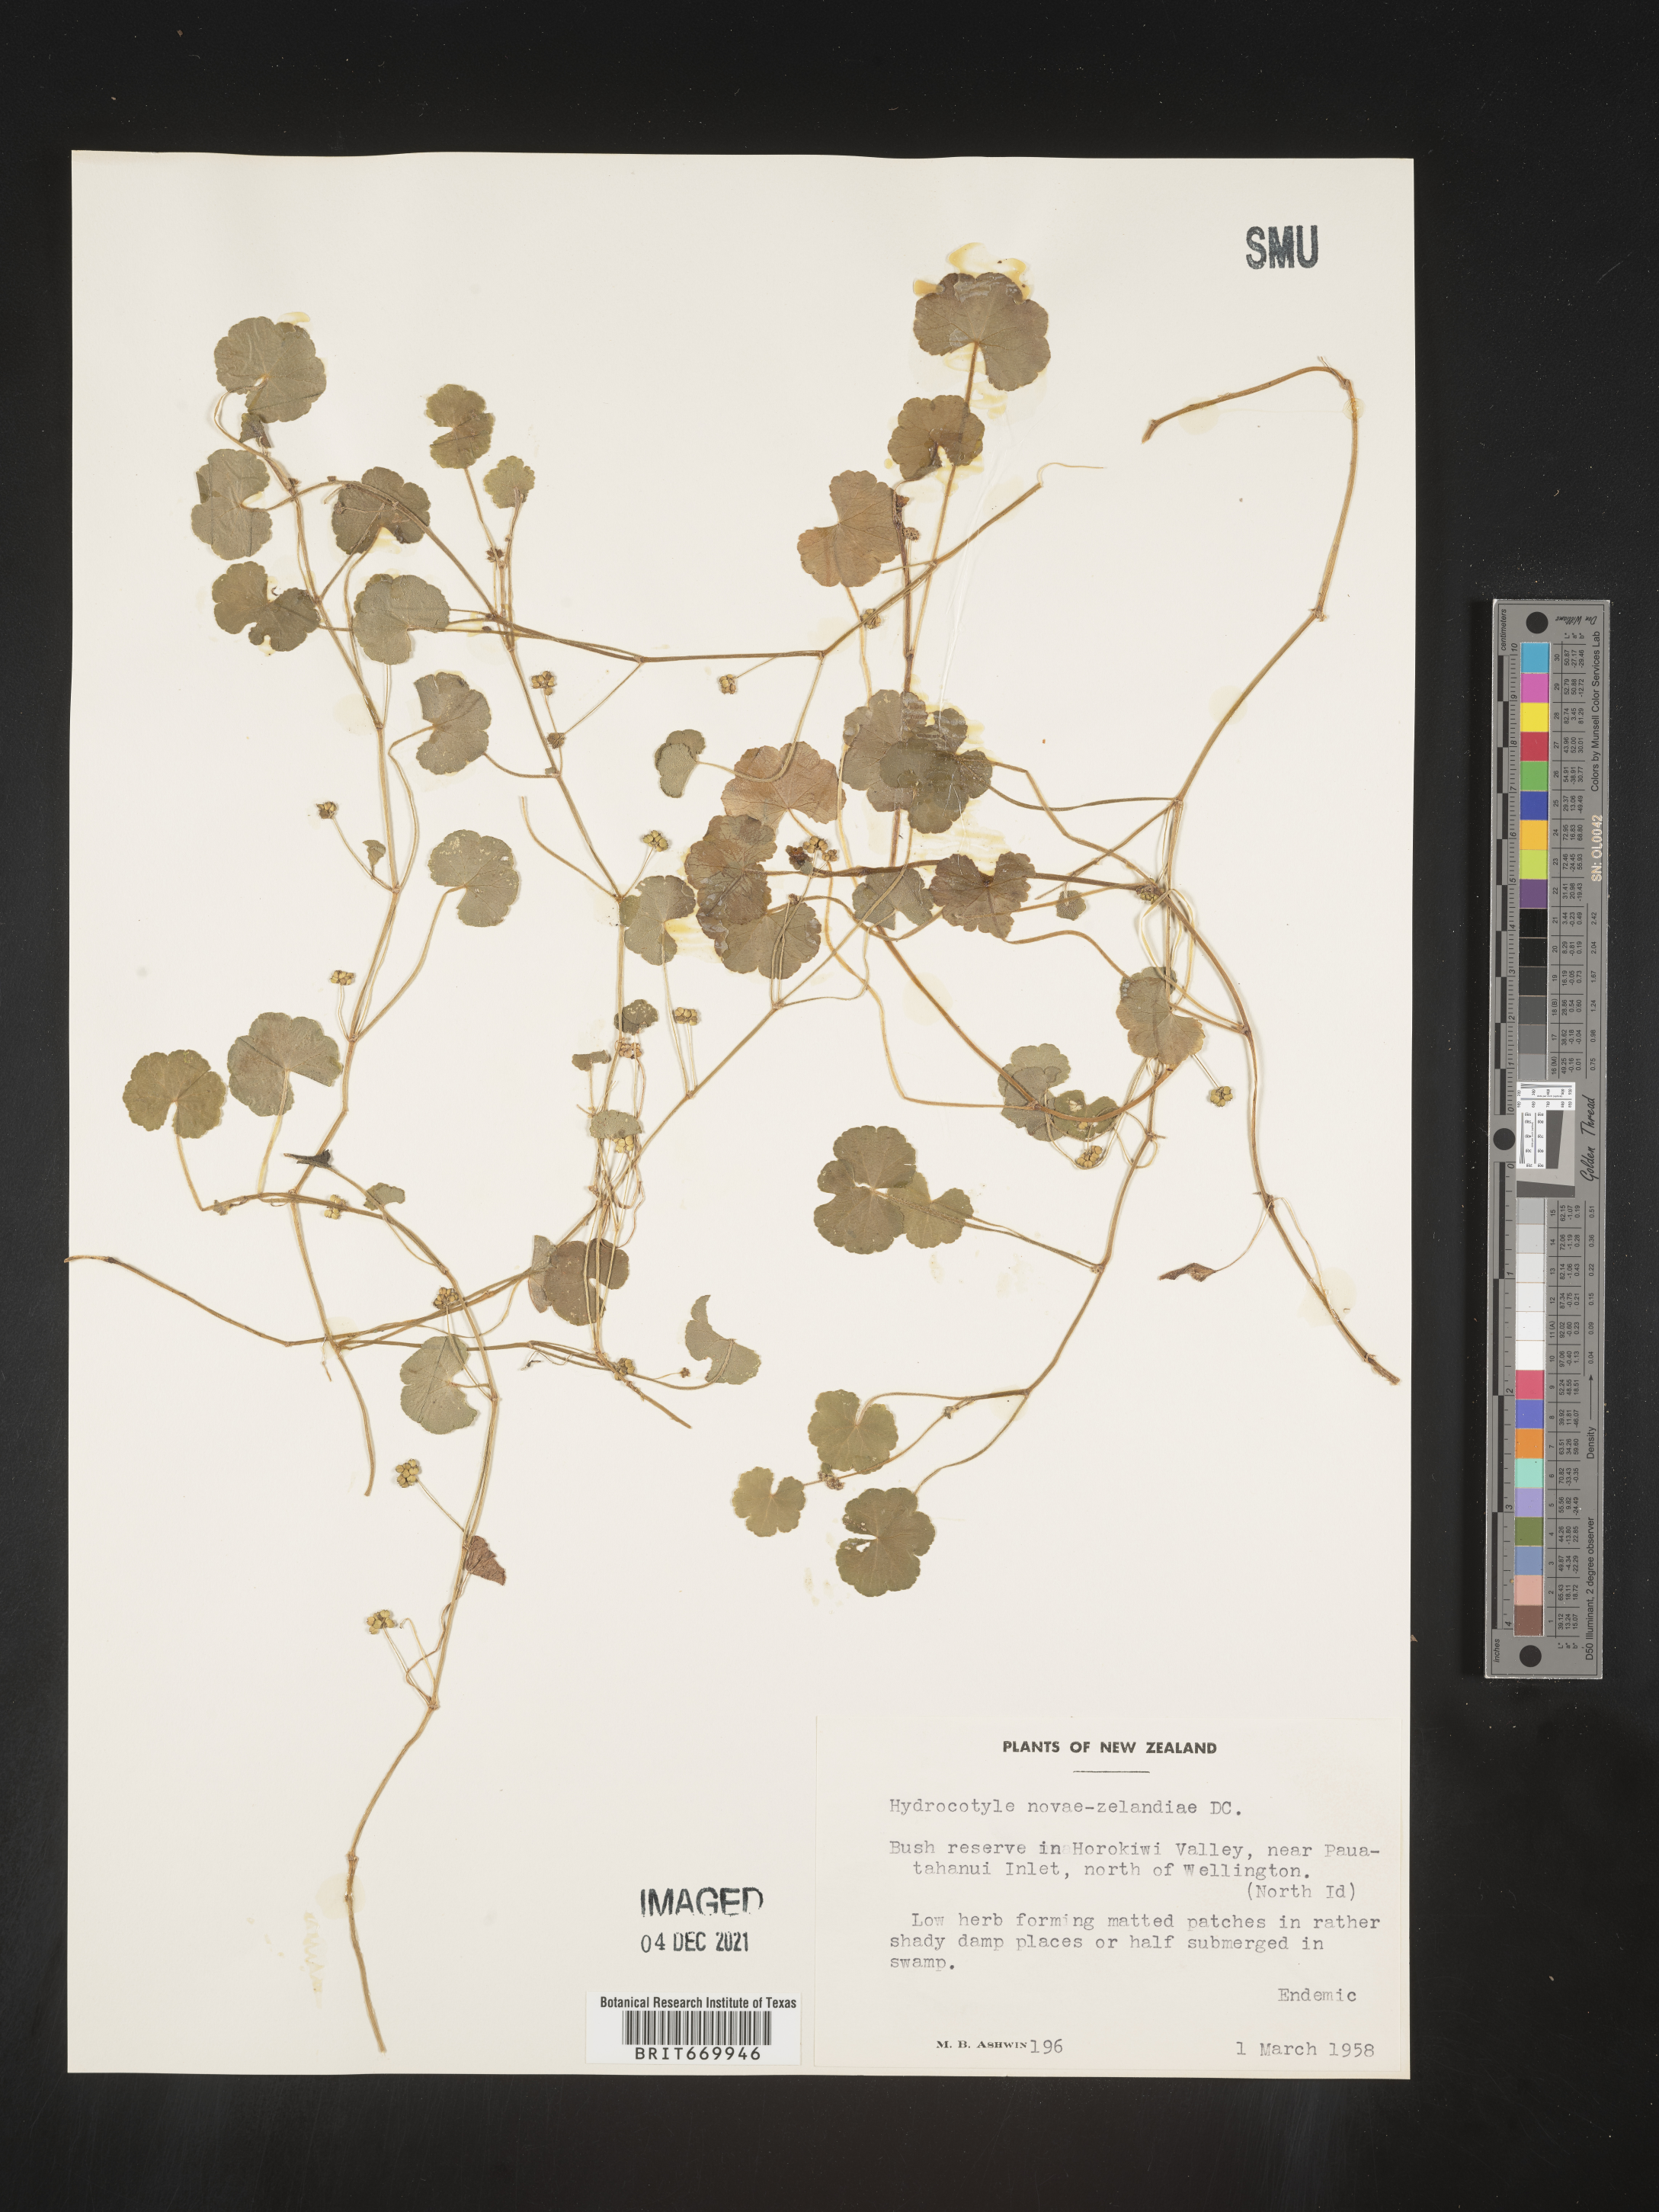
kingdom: Plantae
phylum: Tracheophyta
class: Magnoliopsida
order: Apiales
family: Araliaceae
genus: Hydrocotyle
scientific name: Hydrocotyle novae-zeelandiae
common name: New zealand pennywort
